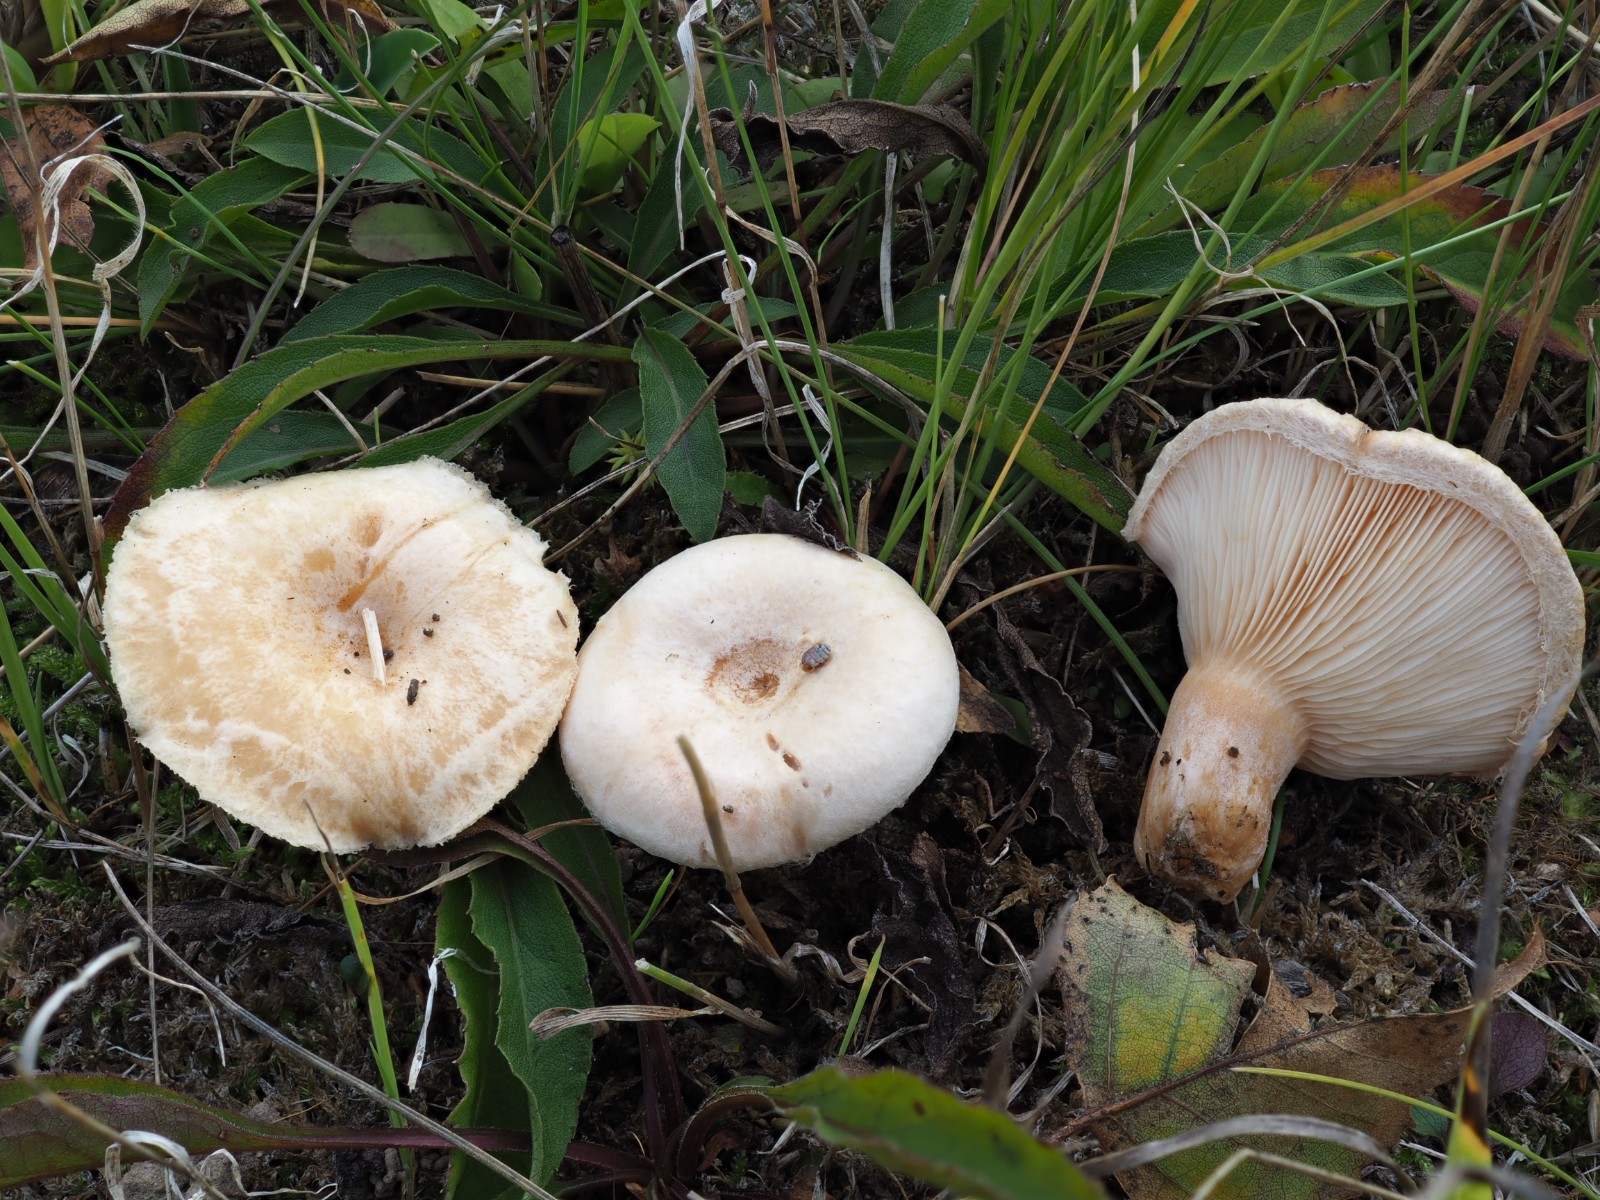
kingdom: Fungi
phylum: Basidiomycota
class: Agaricomycetes
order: Russulales
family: Russulaceae
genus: Lactarius
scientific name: Lactarius pubescens
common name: dunet mælkehat
